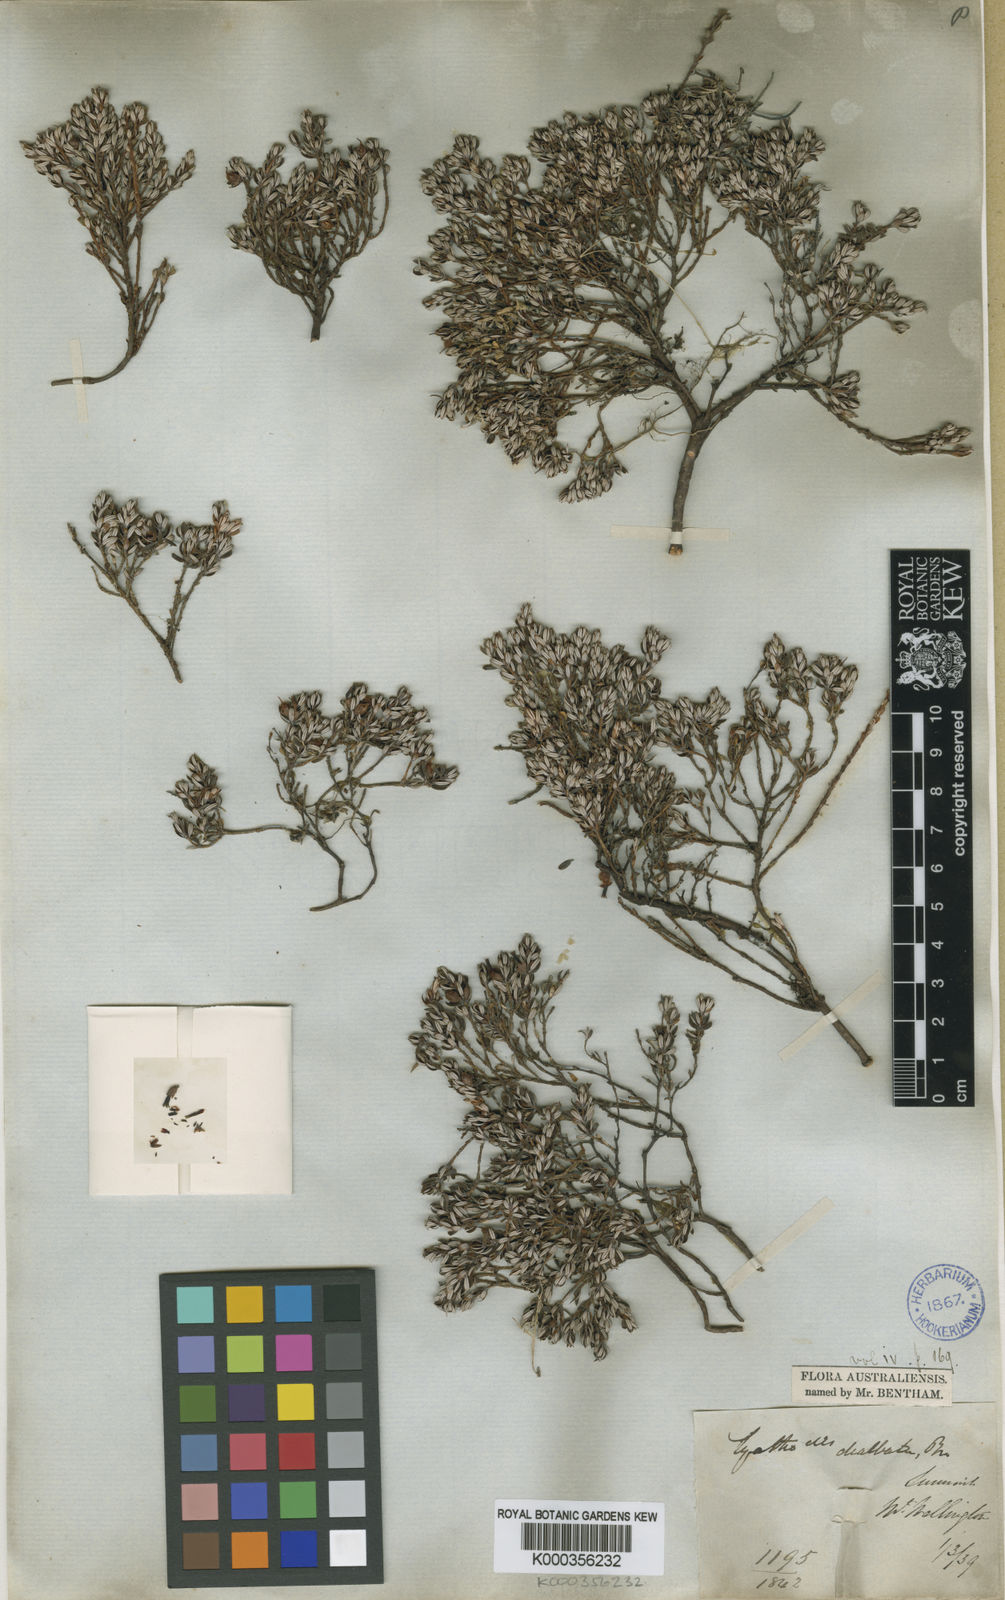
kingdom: Plantae
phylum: Tracheophyta
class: Magnoliopsida
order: Ericales
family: Ericaceae
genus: Montitega
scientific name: Montitega dealbata
